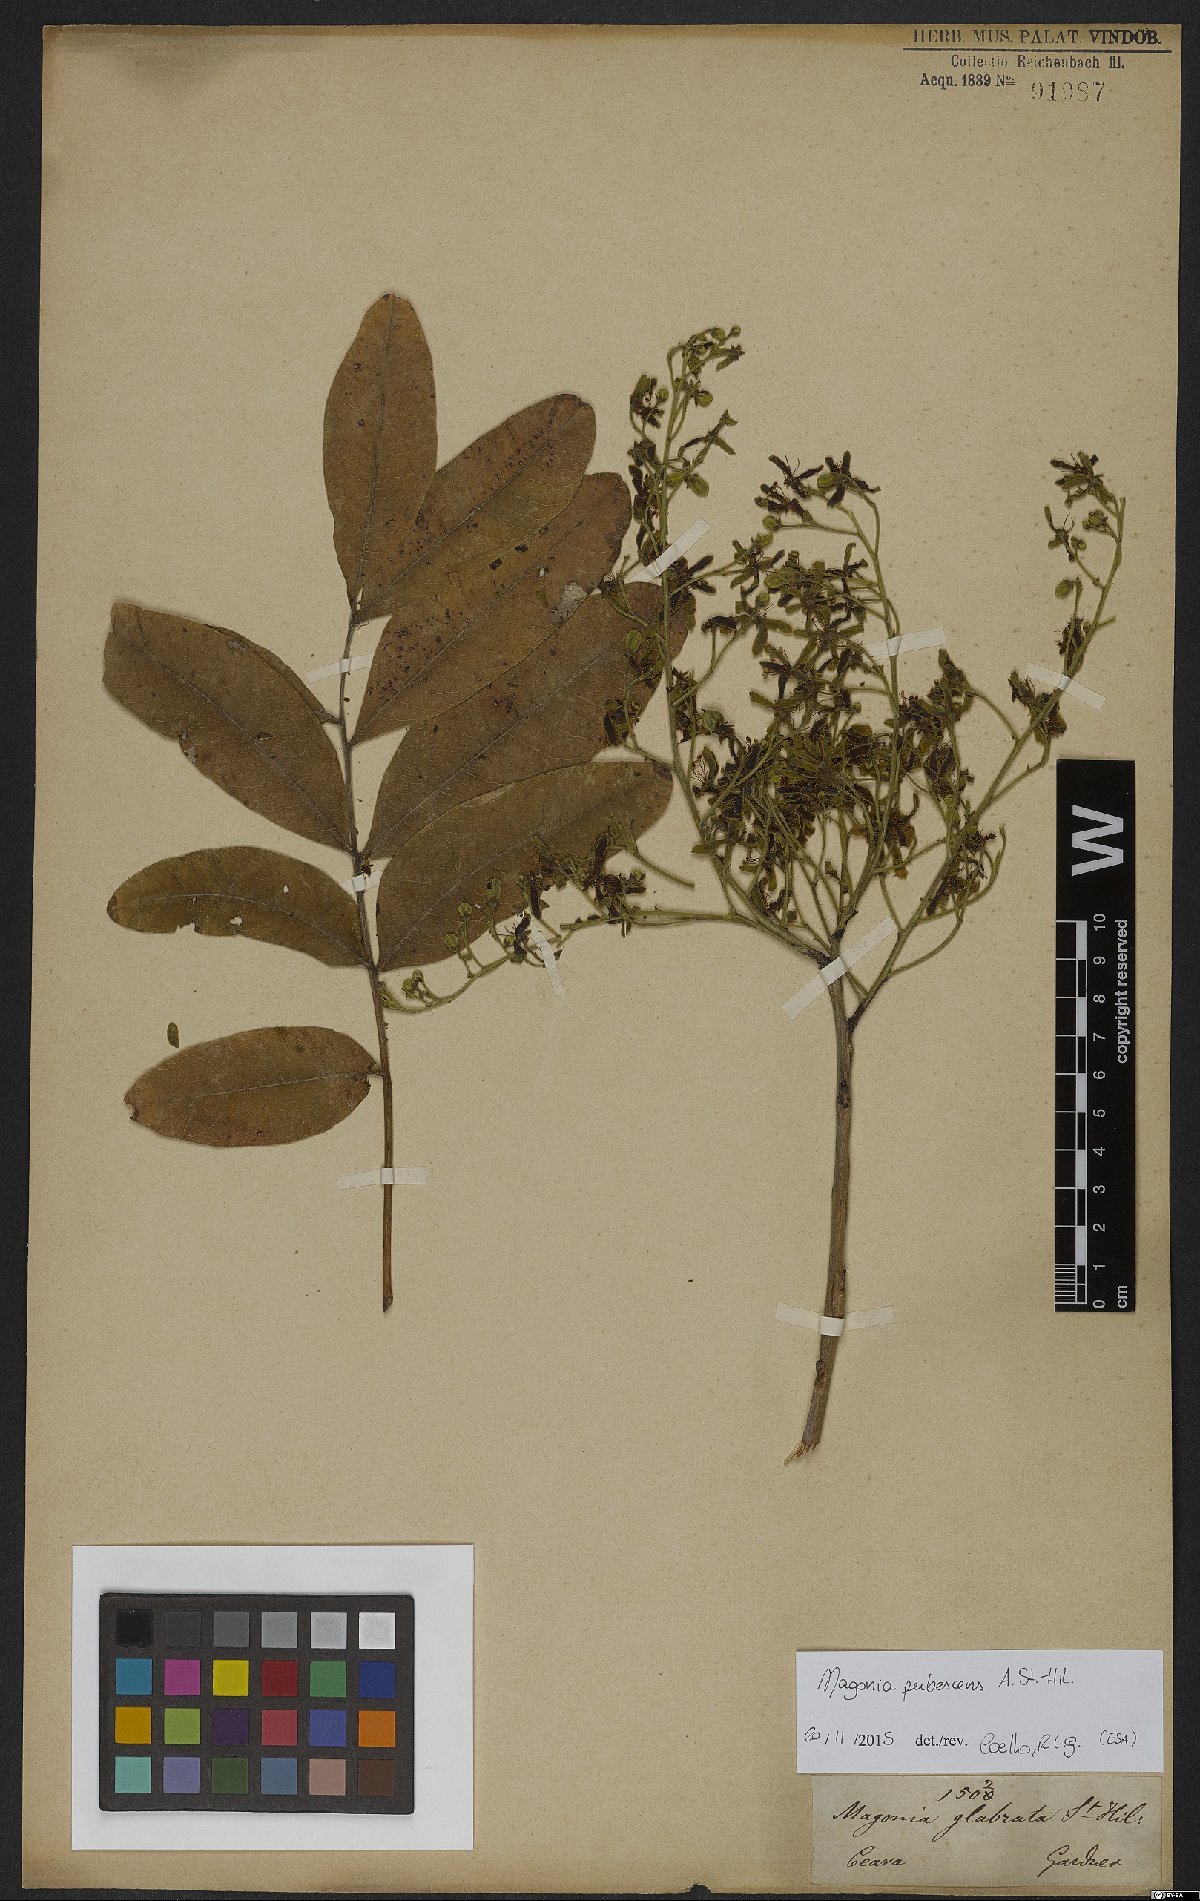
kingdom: Plantae
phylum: Tracheophyta
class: Magnoliopsida
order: Sapindales
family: Sapindaceae
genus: Magonia
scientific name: Magonia pubescens
